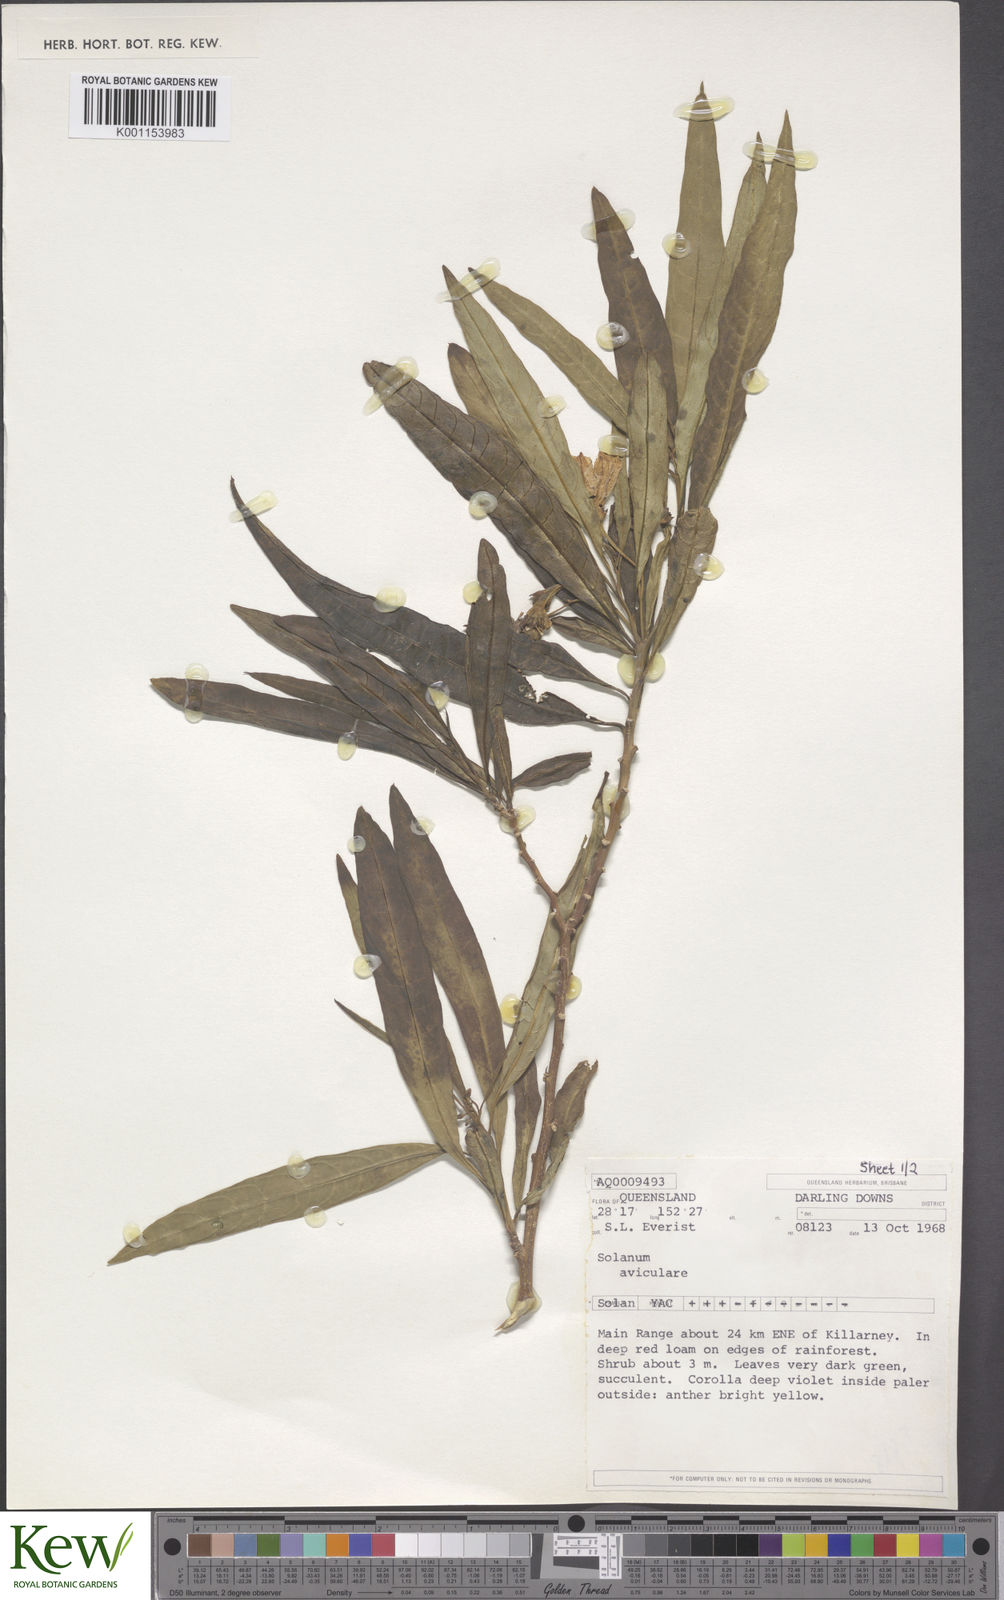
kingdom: Plantae
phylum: Tracheophyta
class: Magnoliopsida
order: Solanales
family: Solanaceae
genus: Solanum
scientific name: Solanum aviculare
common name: New zealand nightshade
